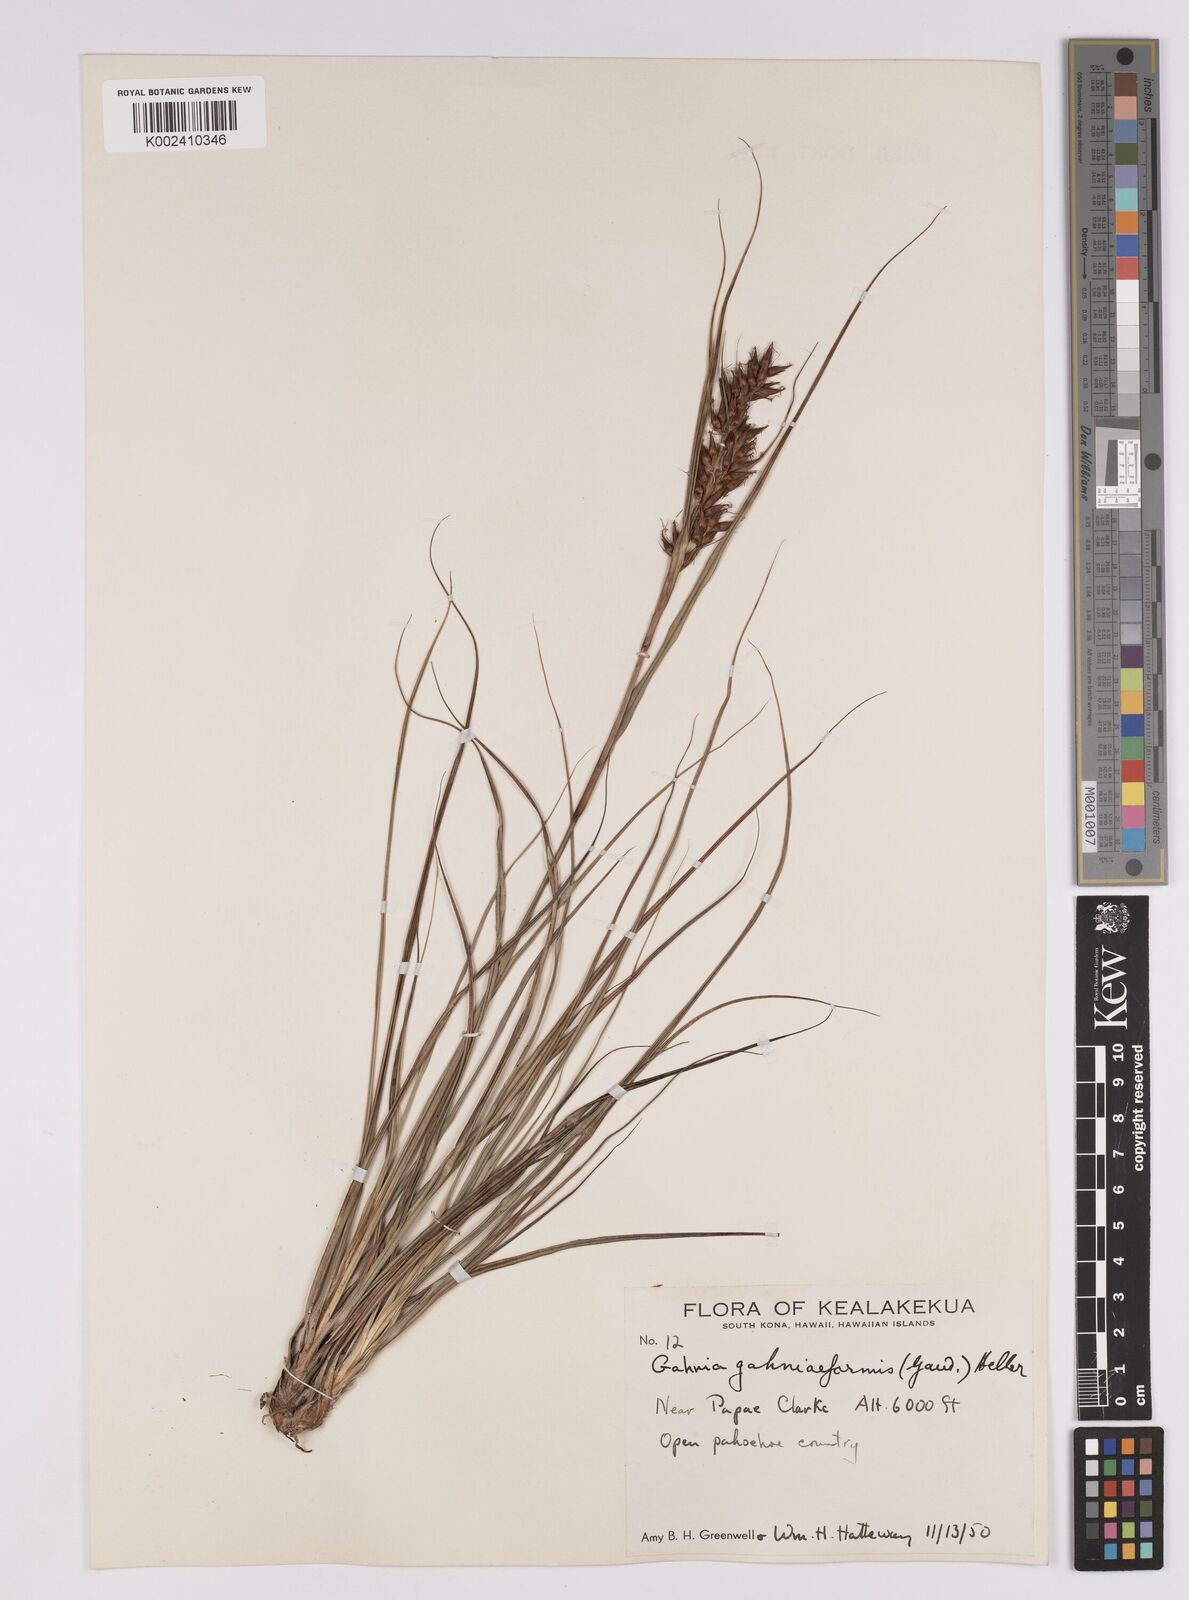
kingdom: Plantae
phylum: Tracheophyta
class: Liliopsida
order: Poales
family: Cyperaceae
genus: Morelotia
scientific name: Morelotia gahniiformis
